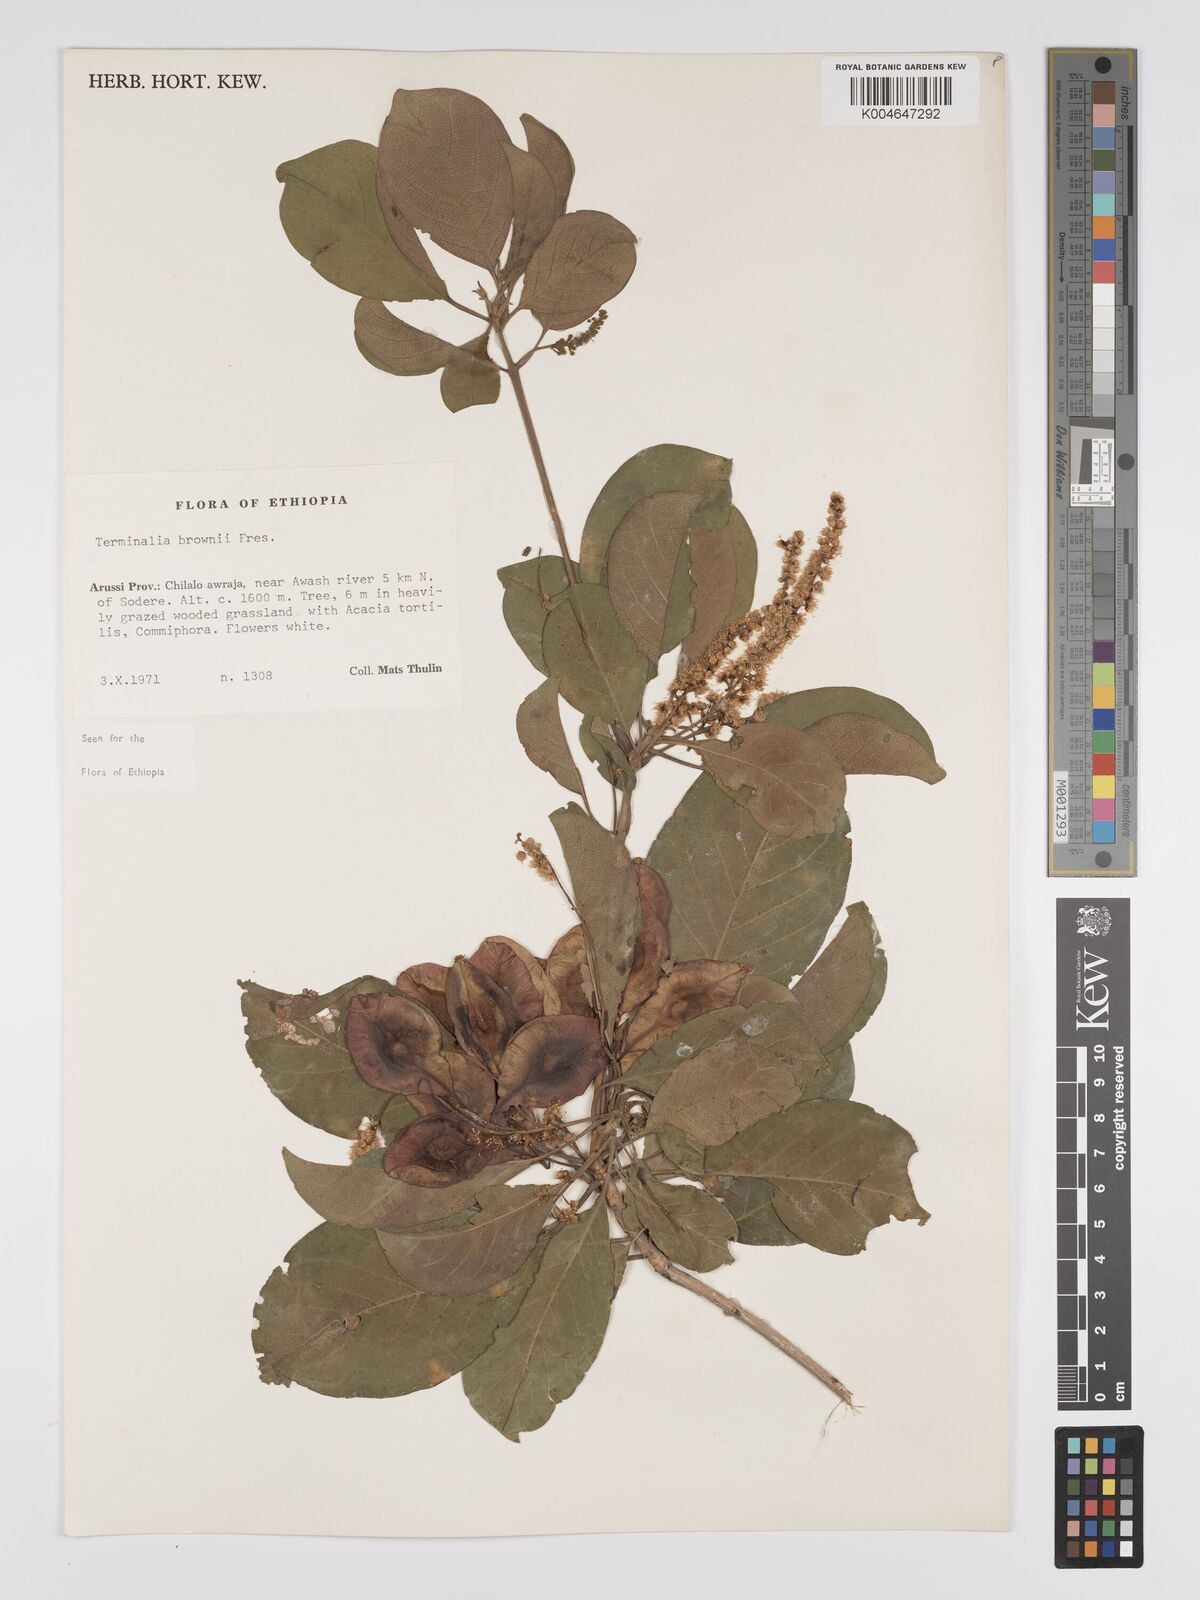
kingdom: Plantae
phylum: Tracheophyta
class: Magnoliopsida
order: Myrtales
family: Combretaceae
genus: Terminalia
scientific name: Terminalia brownii
